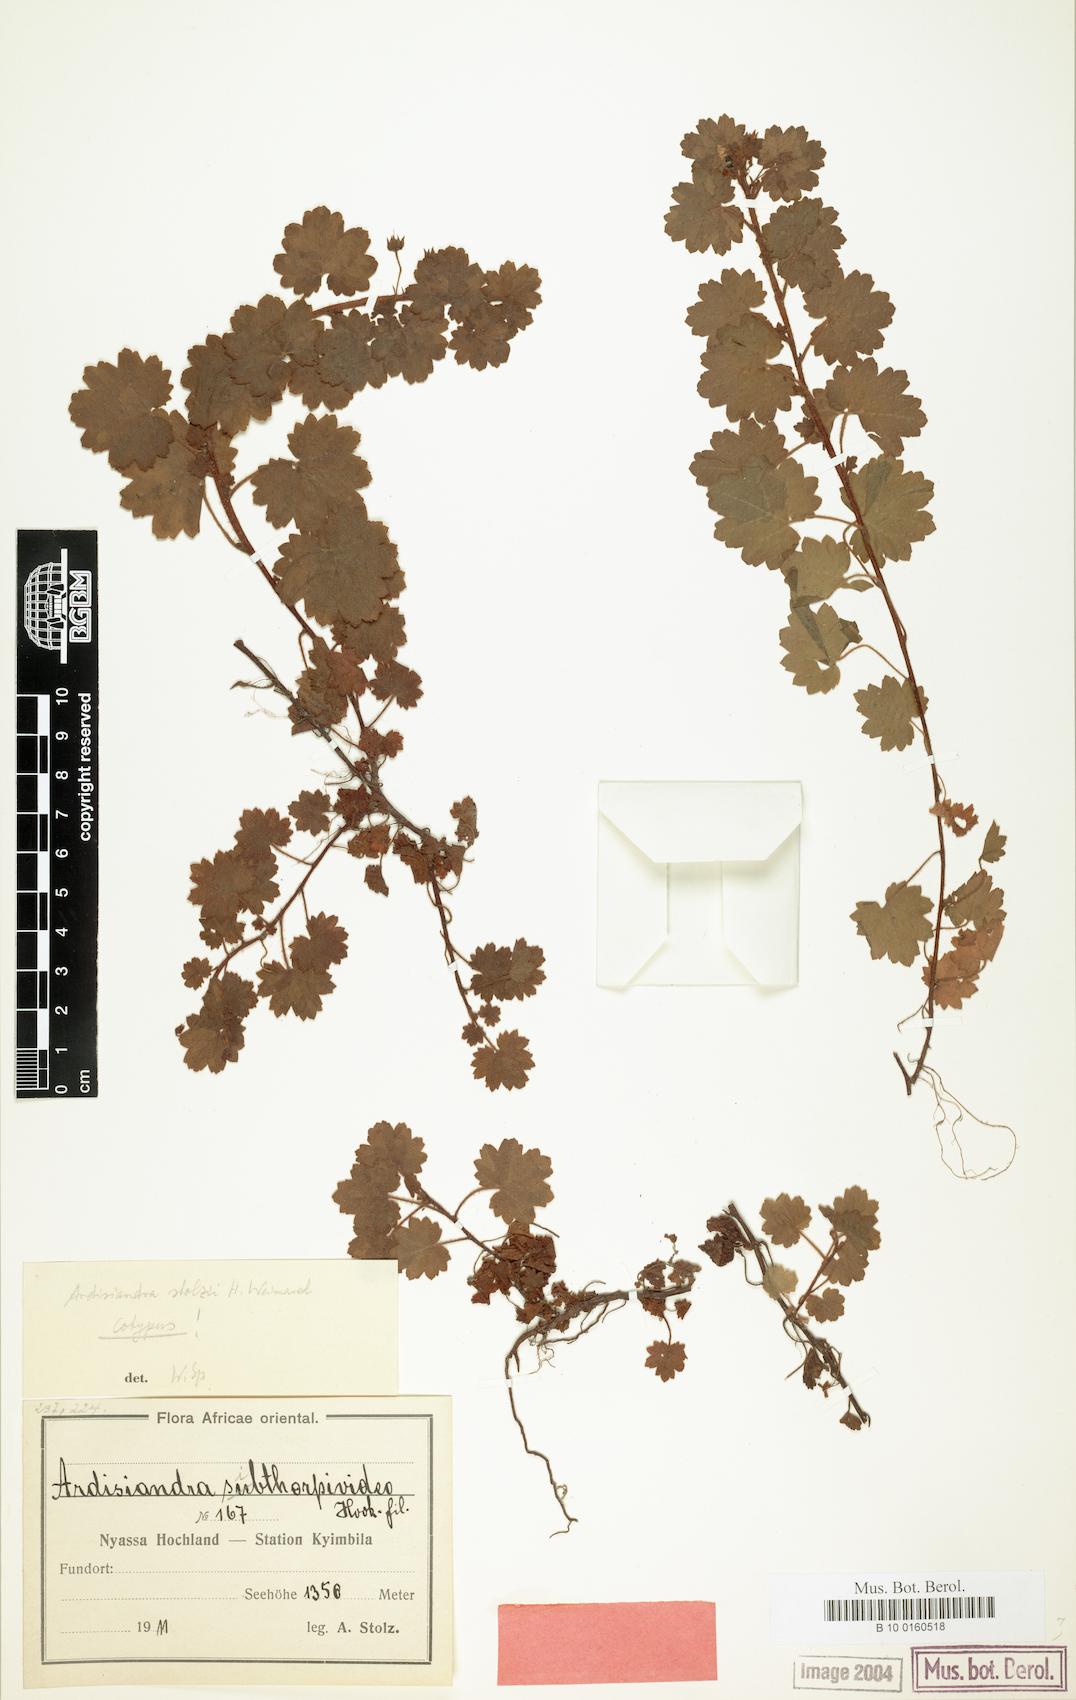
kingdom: Plantae
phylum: Tracheophyta
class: Magnoliopsida
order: Ericales
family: Primulaceae
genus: Ardisiandra
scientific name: Ardisiandra wettsteinii
